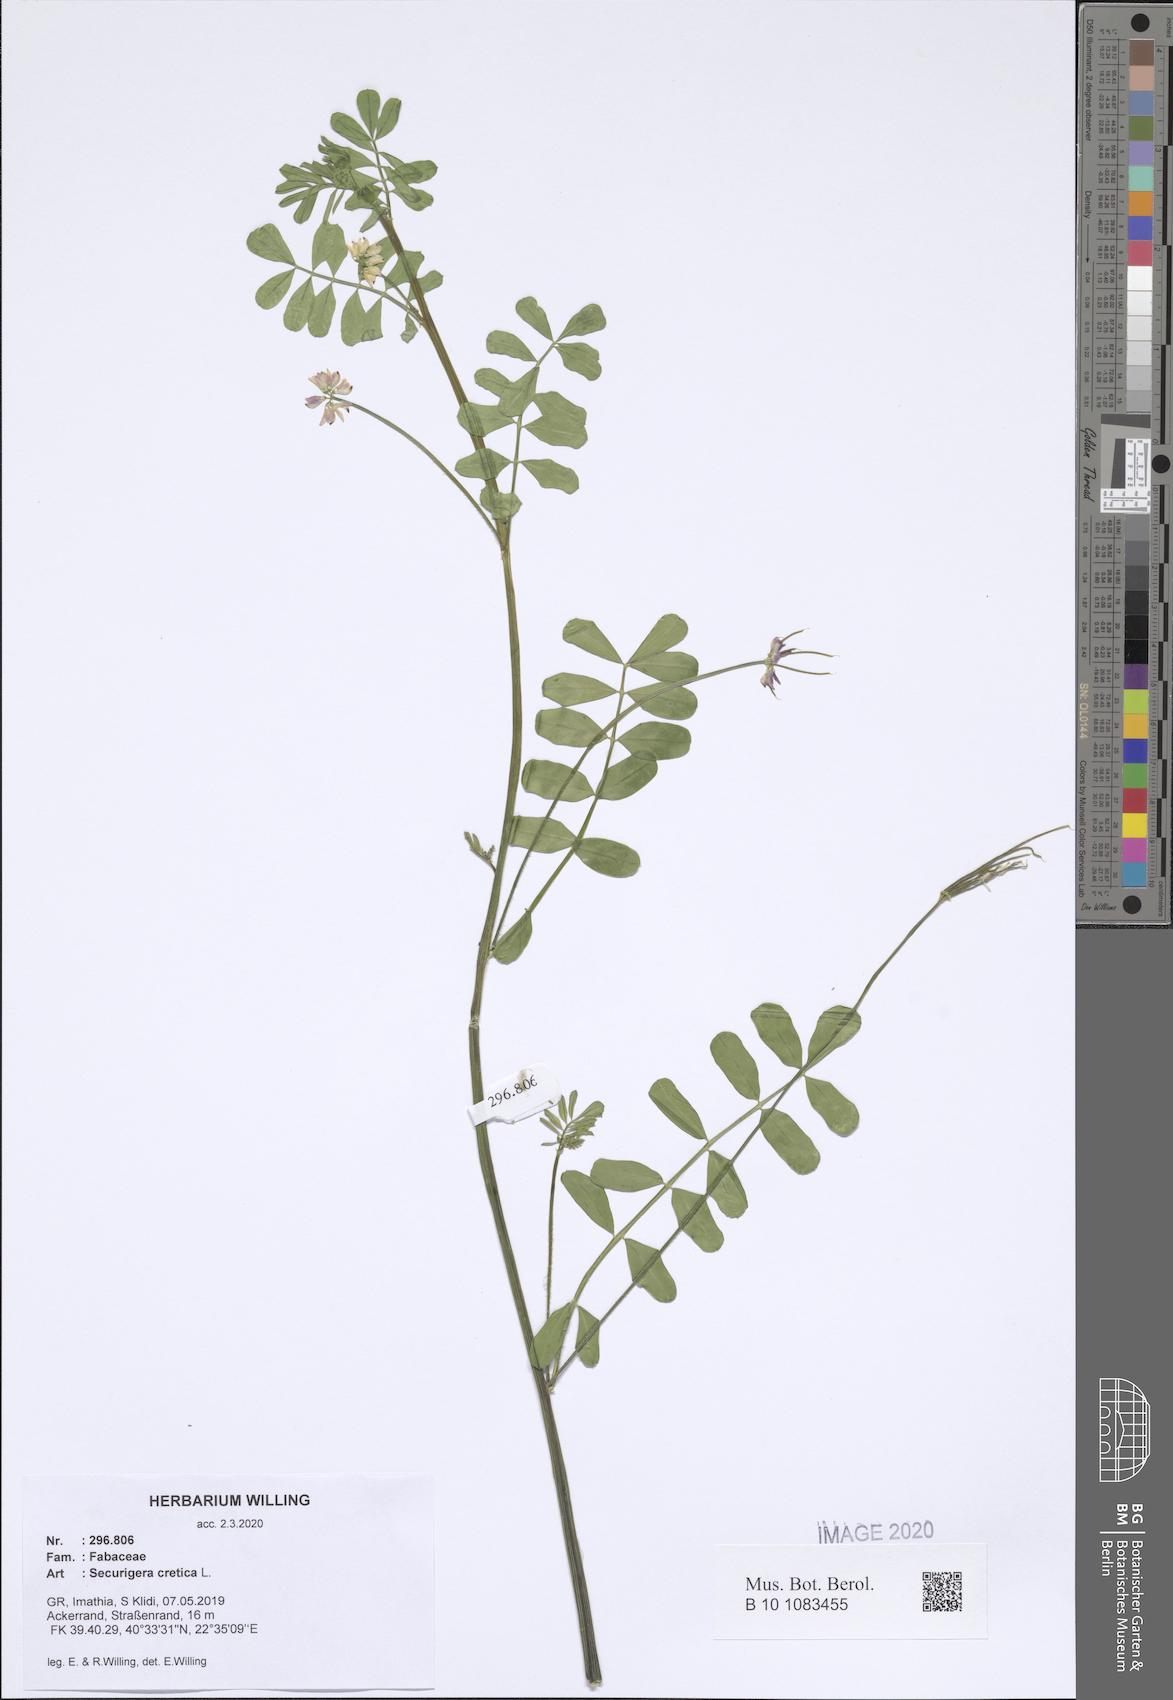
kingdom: Plantae
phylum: Tracheophyta
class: Magnoliopsida
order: Fabales
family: Fabaceae
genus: Coronilla
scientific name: Coronilla cretica
